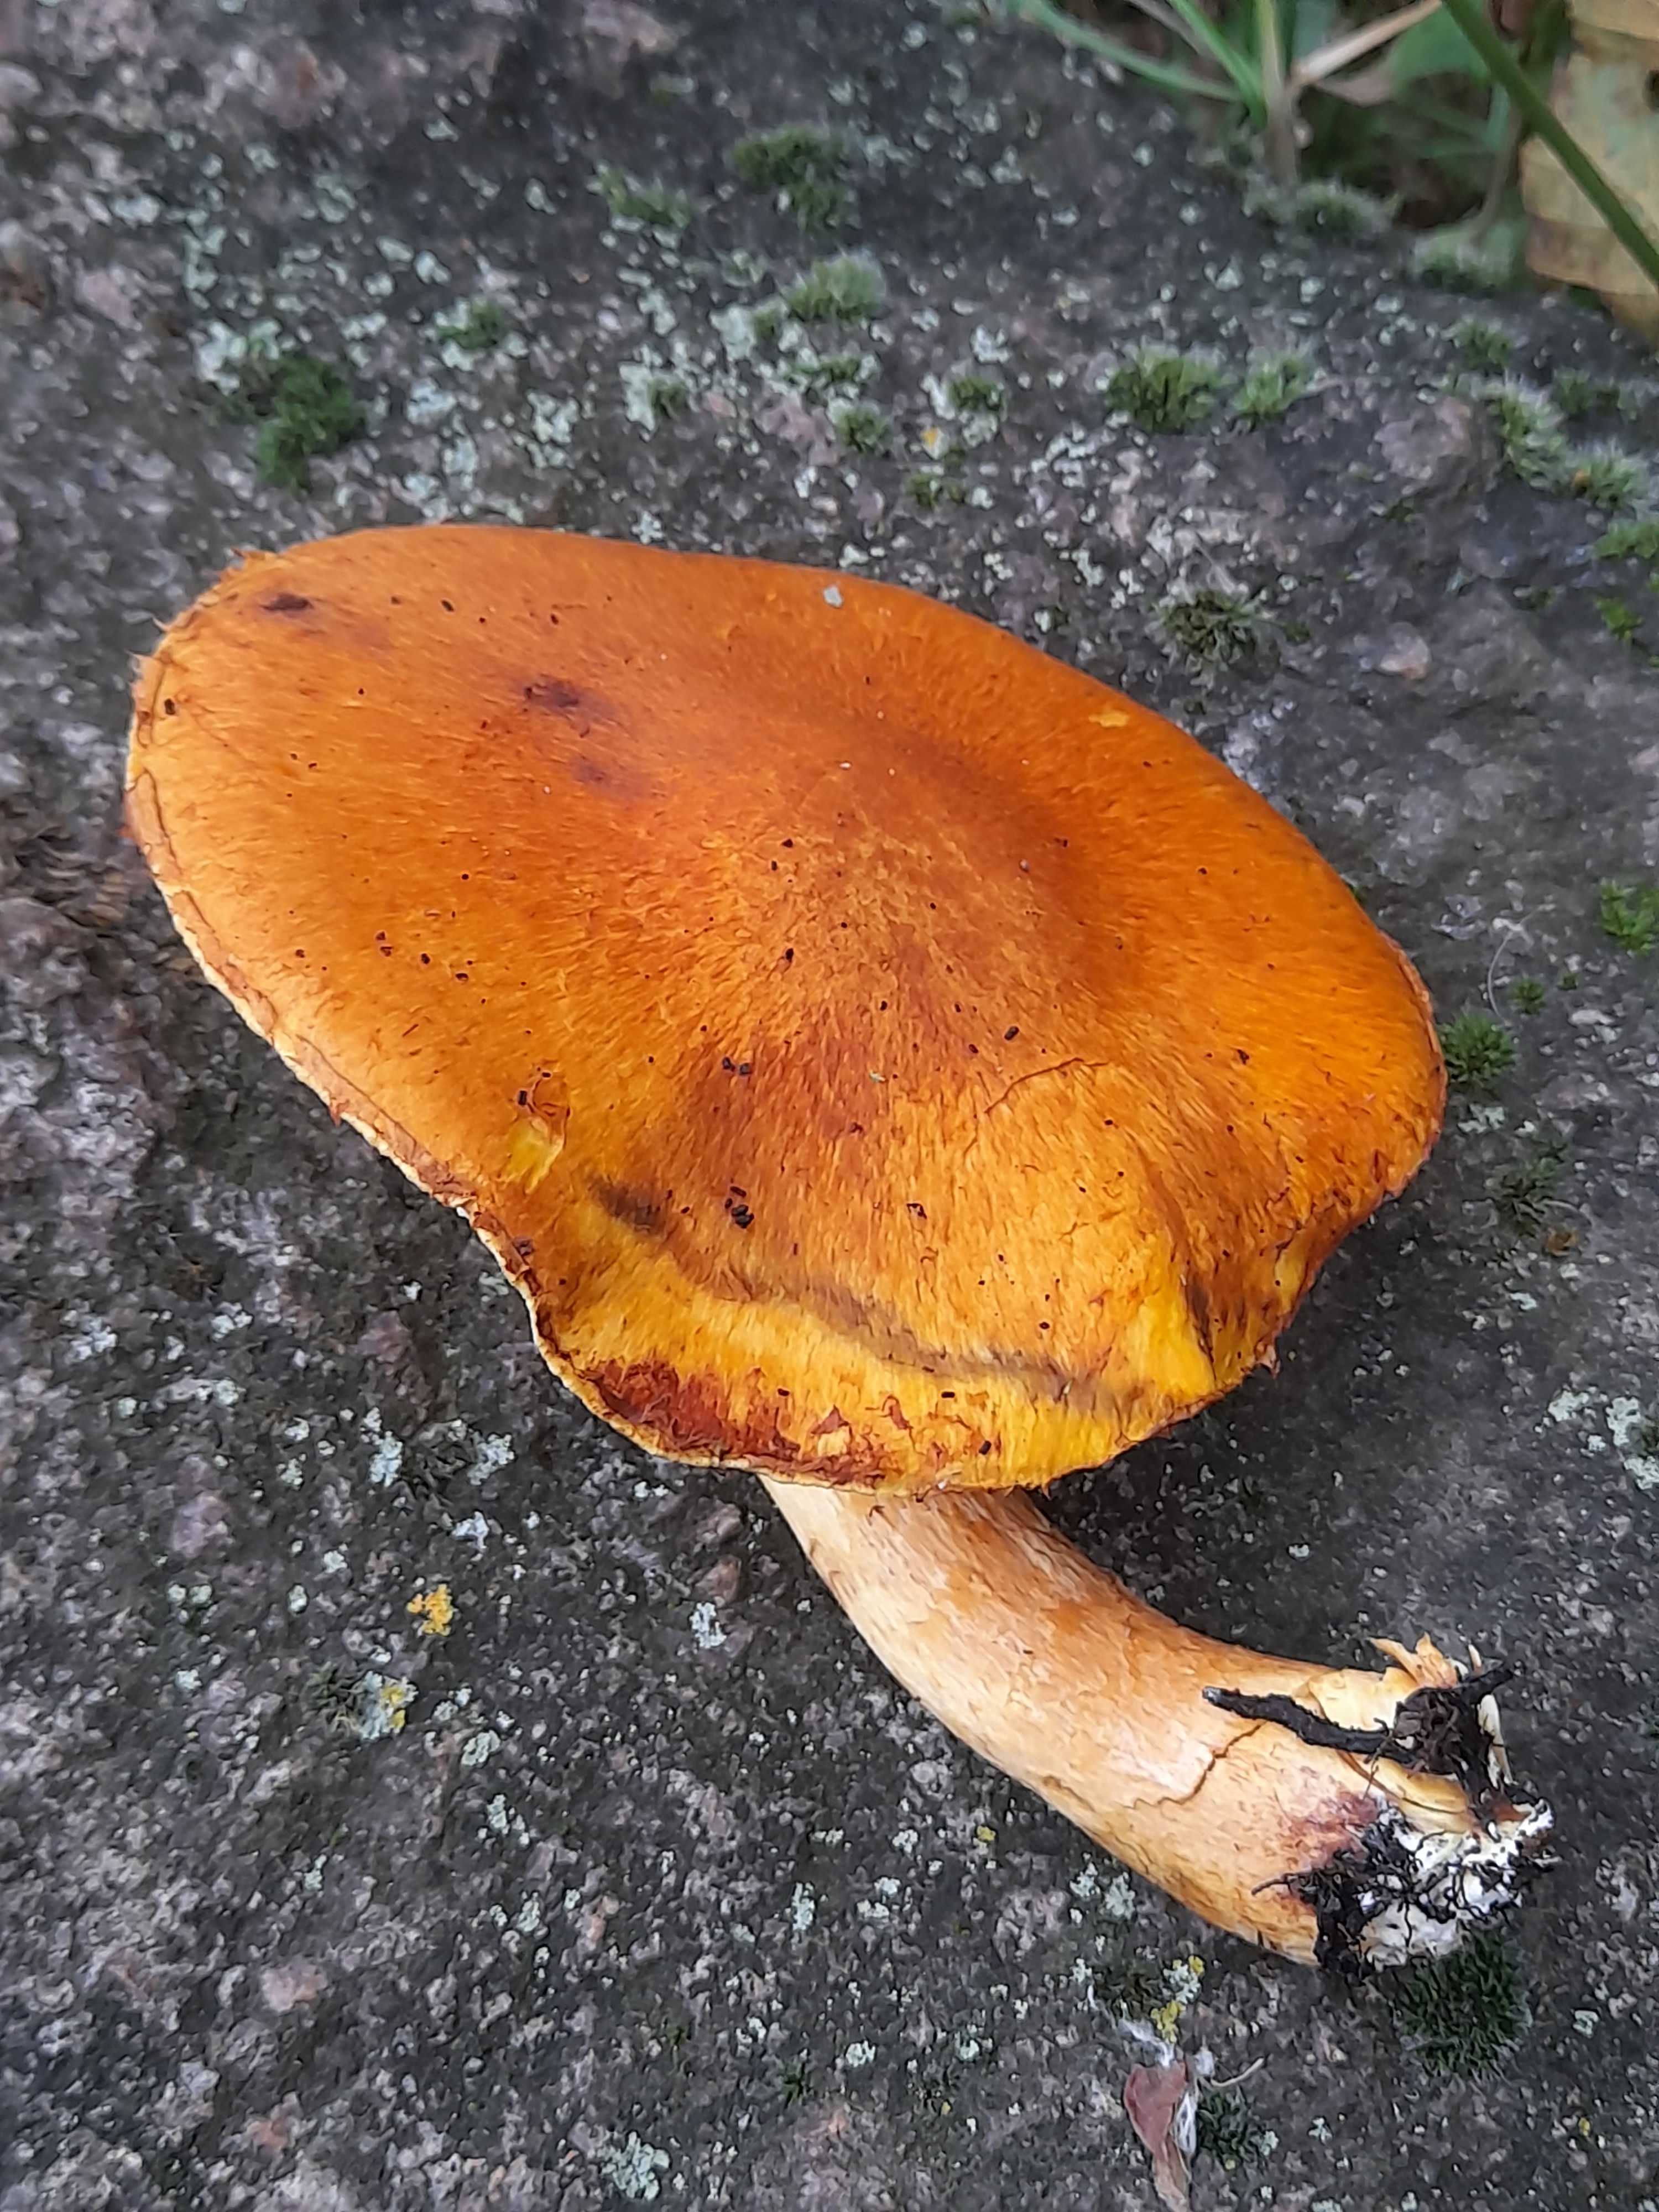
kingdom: Fungi
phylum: Basidiomycota
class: Agaricomycetes
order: Agaricales
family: Hymenogastraceae
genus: Gymnopilus
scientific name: Gymnopilus spectabilis
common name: fibret flammehat
